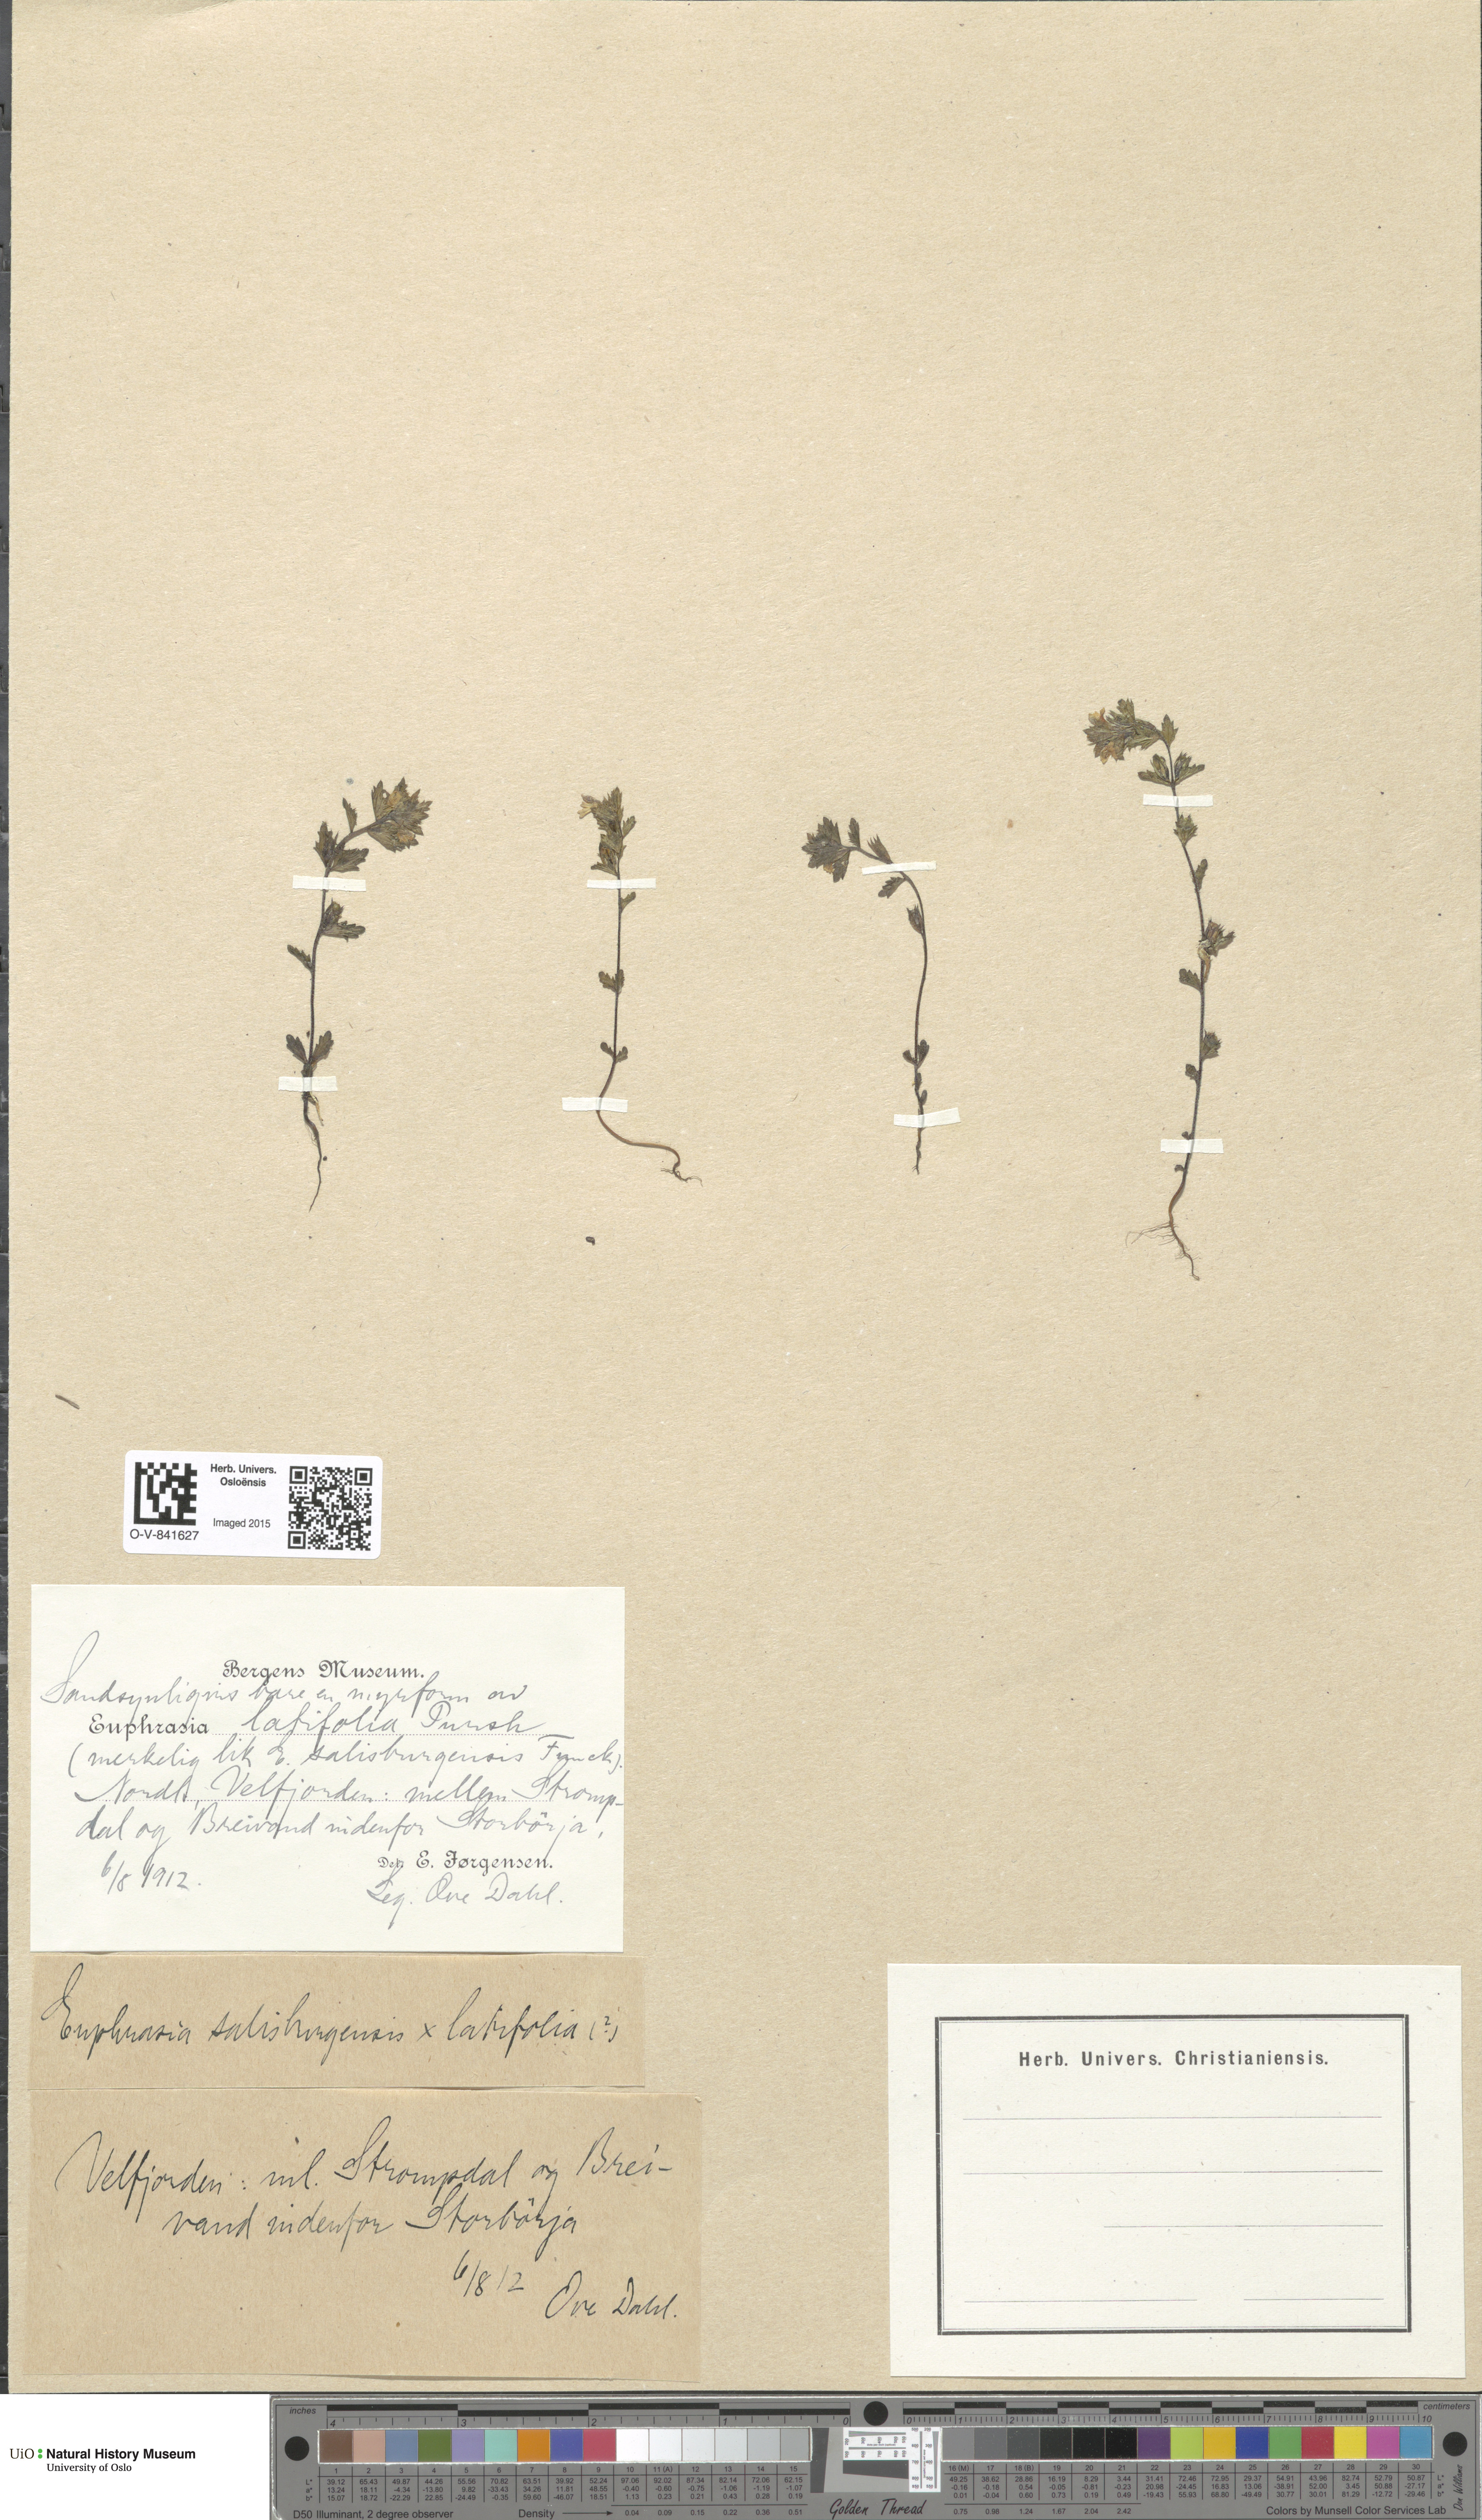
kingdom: Plantae
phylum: Tracheophyta
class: Magnoliopsida
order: Lamiales
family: Orobanchaceae
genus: Euphrasia
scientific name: Euphrasia wettsteinii
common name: Wettstein's eyebright
